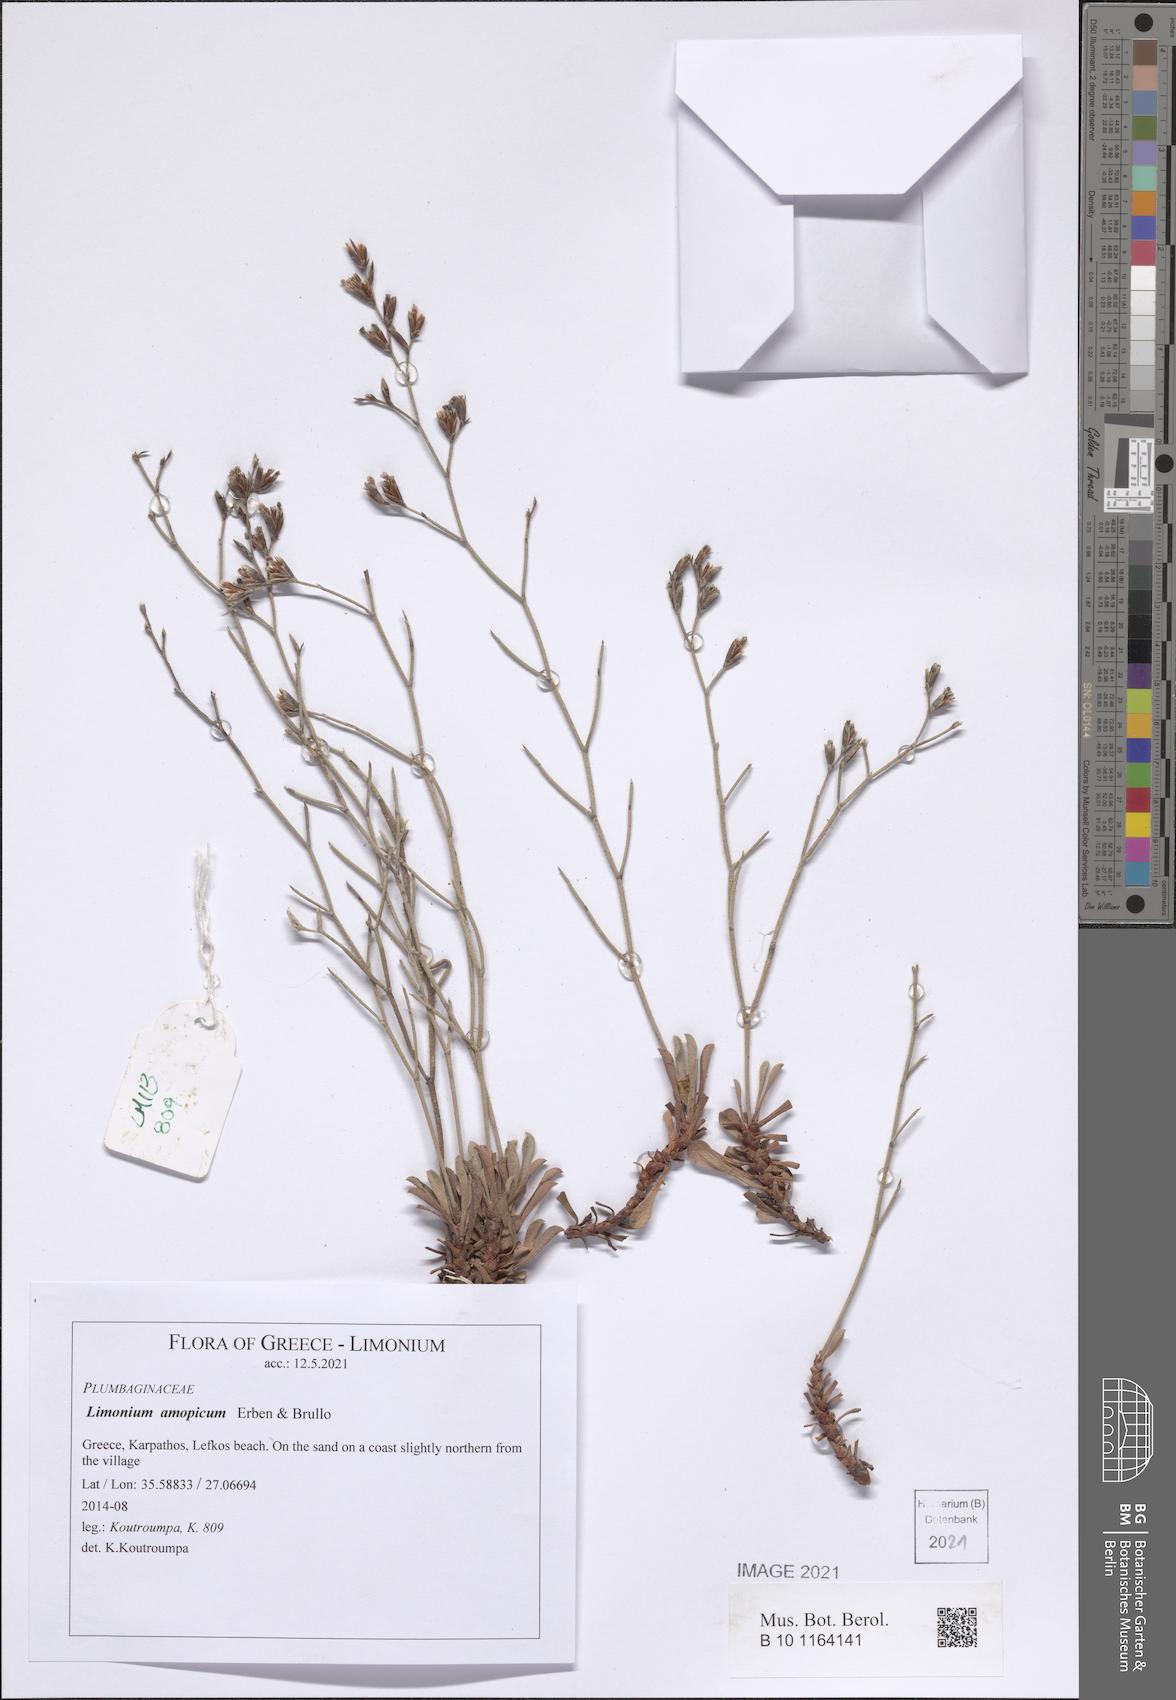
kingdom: Plantae
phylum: Tracheophyta
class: Magnoliopsida
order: Caryophyllales
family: Plumbaginaceae
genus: Limonium
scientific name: Limonium amopicum
